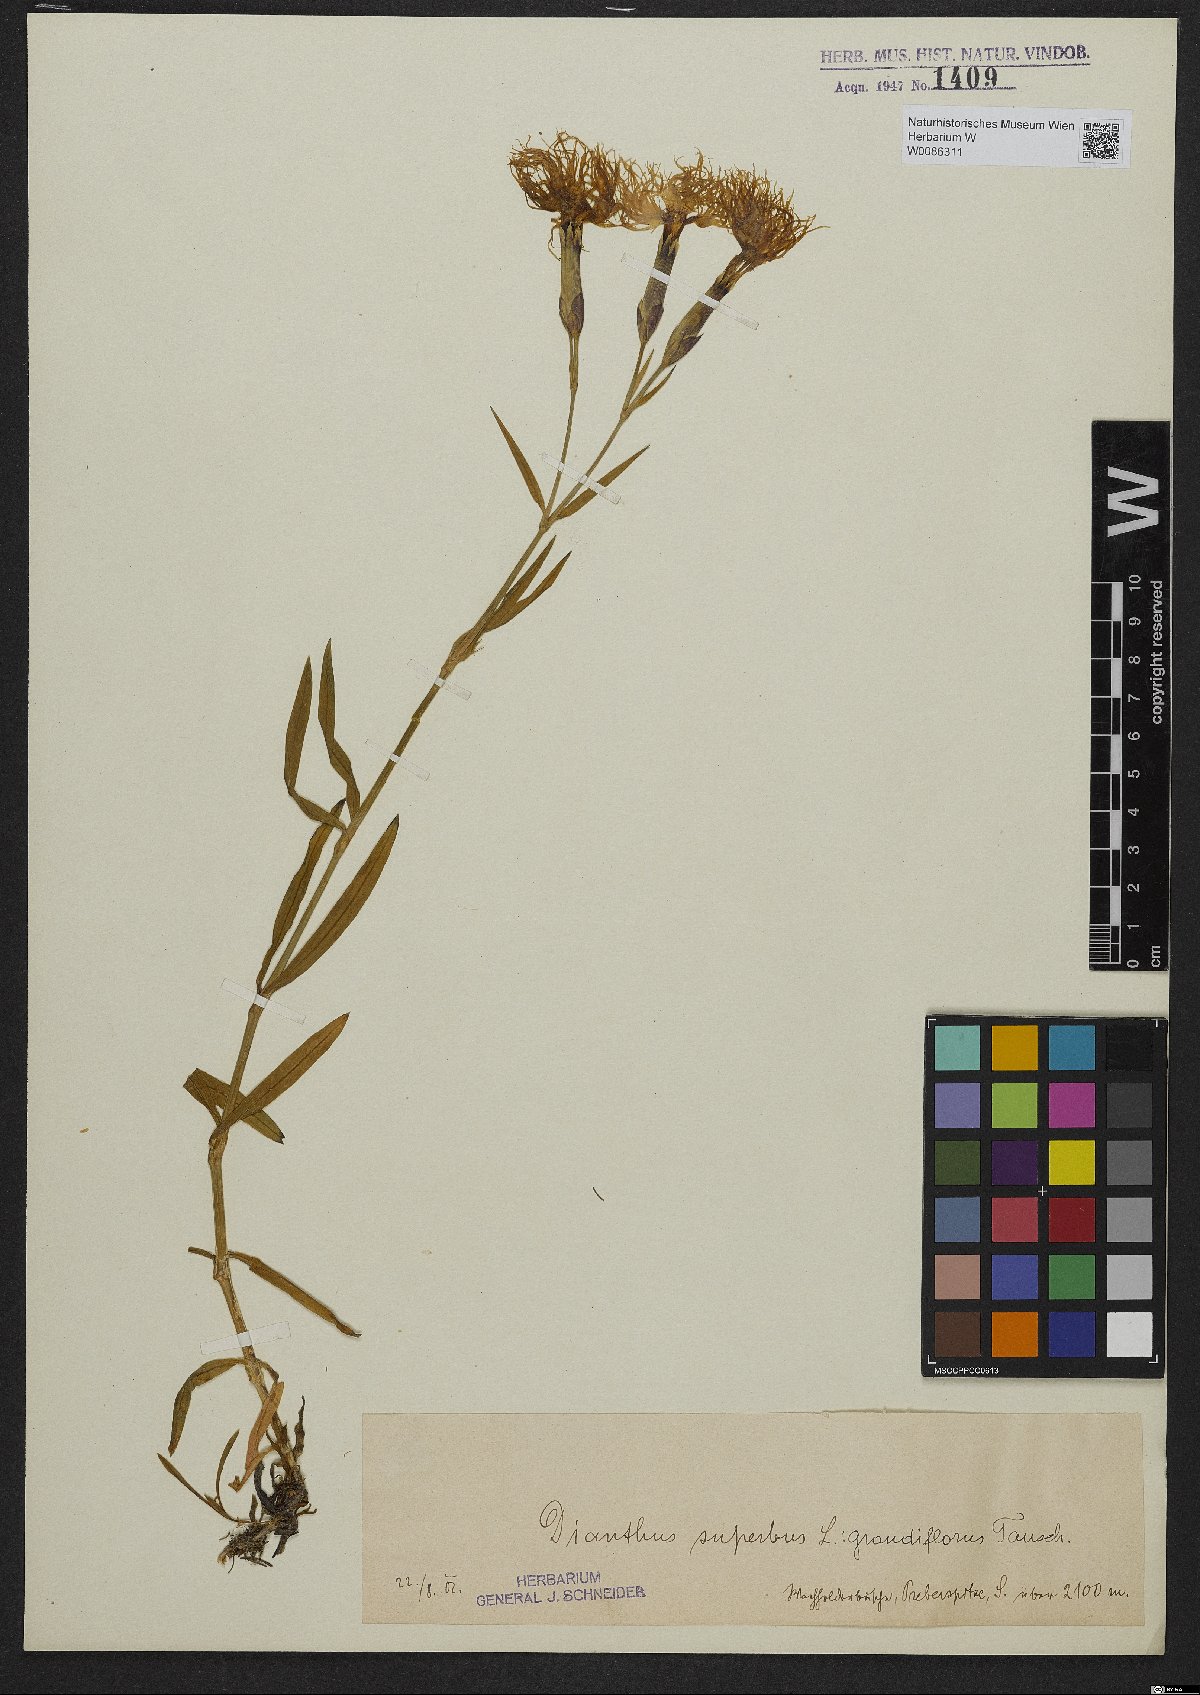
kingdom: Plantae
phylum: Tracheophyta
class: Magnoliopsida
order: Caryophyllales
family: Caryophyllaceae
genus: Dianthus
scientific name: Dianthus superbus
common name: Fringed pink
